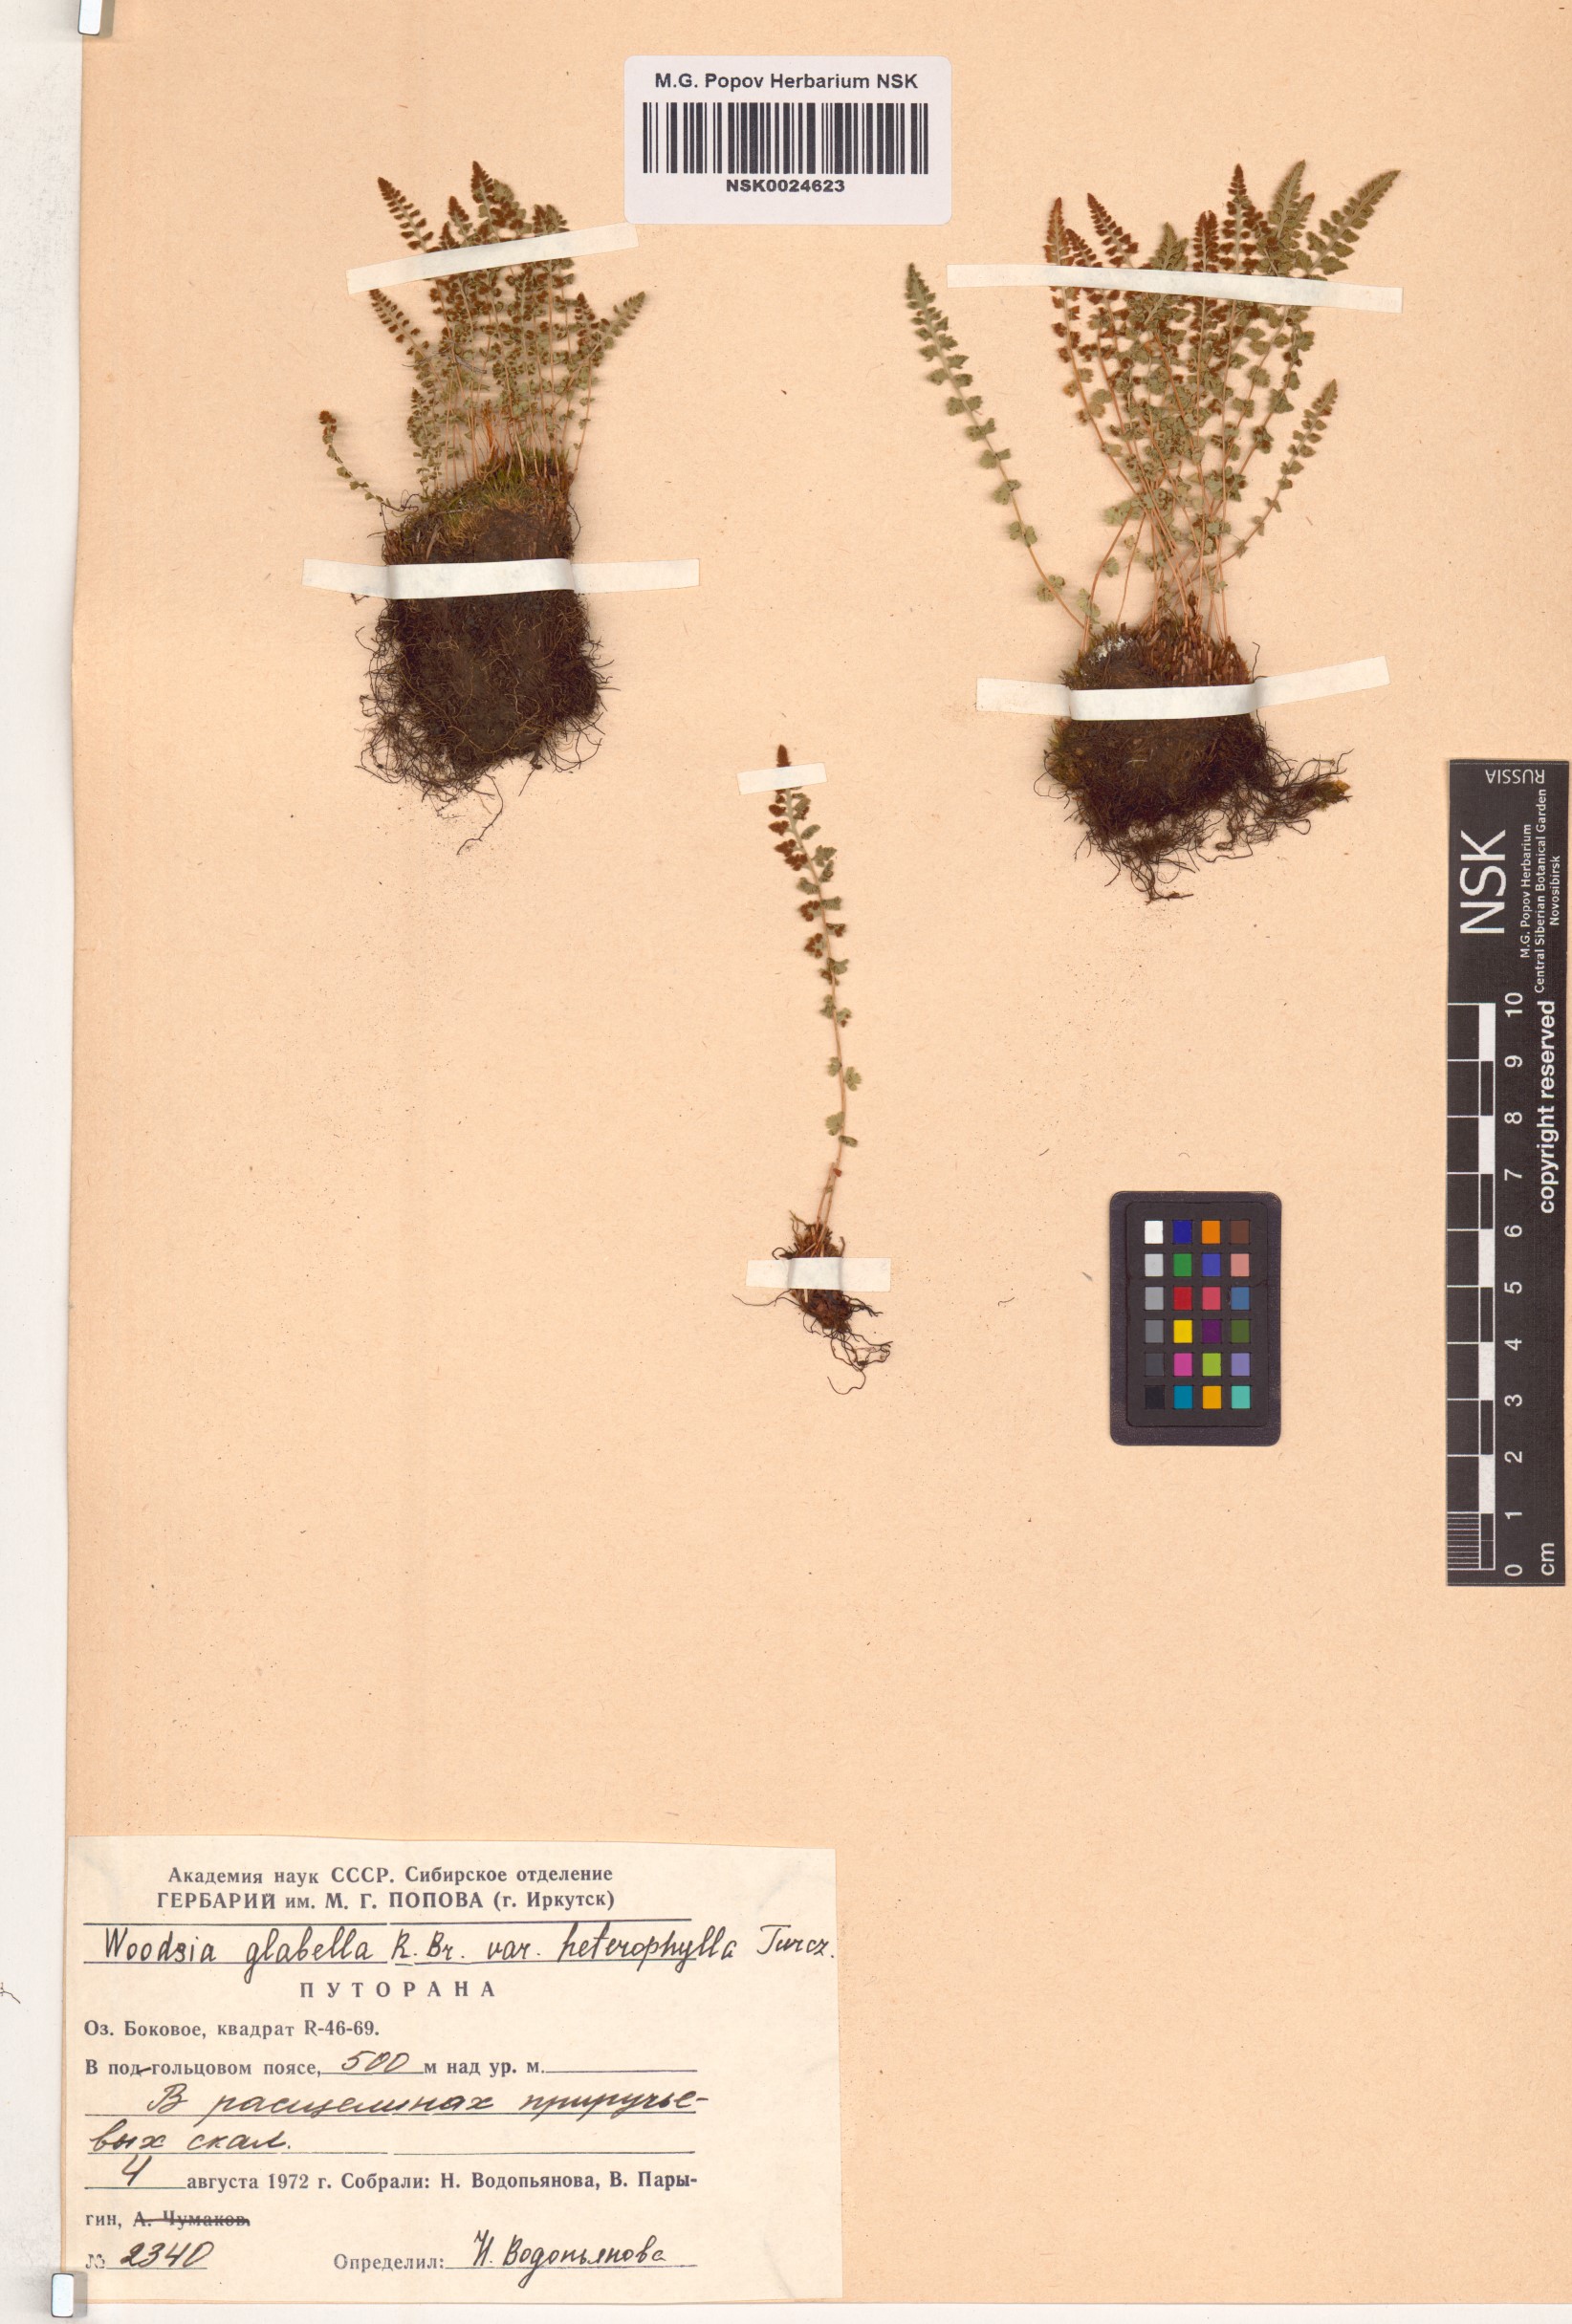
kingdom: Plantae
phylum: Tracheophyta
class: Polypodiopsida
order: Polypodiales
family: Woodsiaceae
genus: Woodsia
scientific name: Woodsia pulchella
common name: Graceful woodsia
